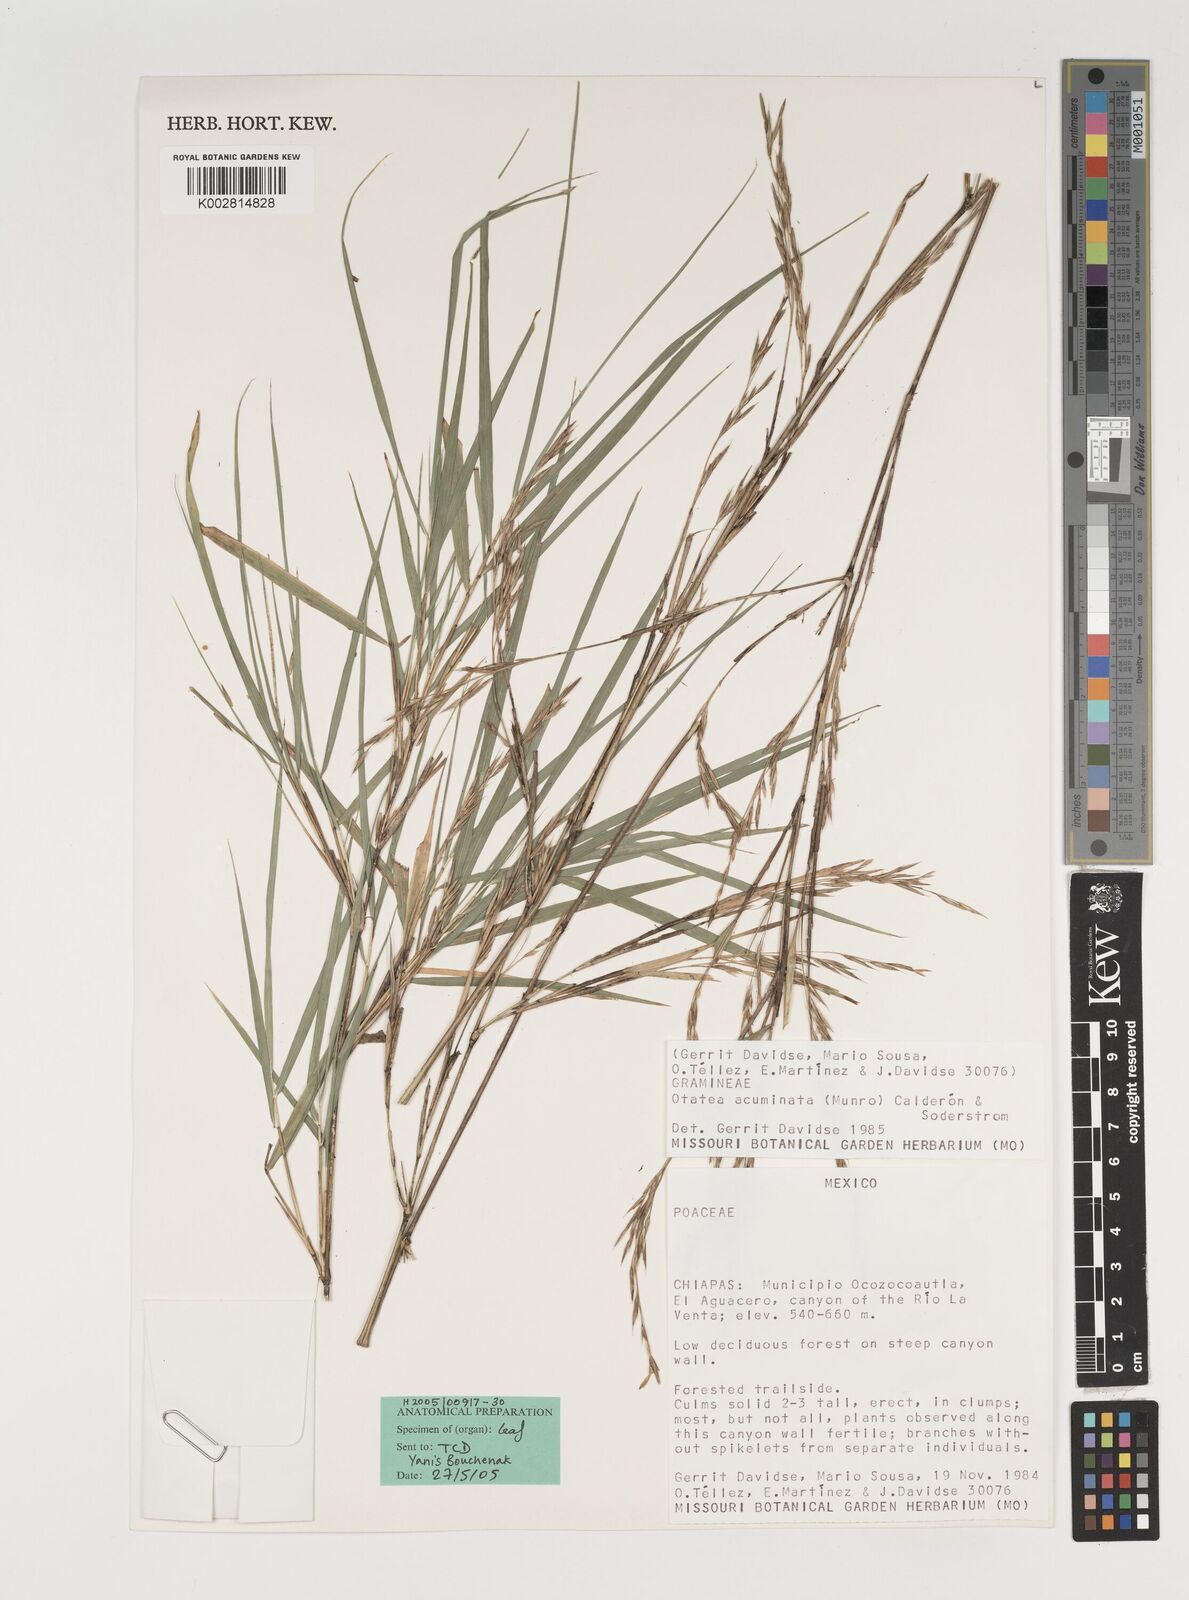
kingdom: Plantae
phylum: Tracheophyta
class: Liliopsida
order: Poales
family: Poaceae
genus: Olmeca
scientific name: Olmeca
